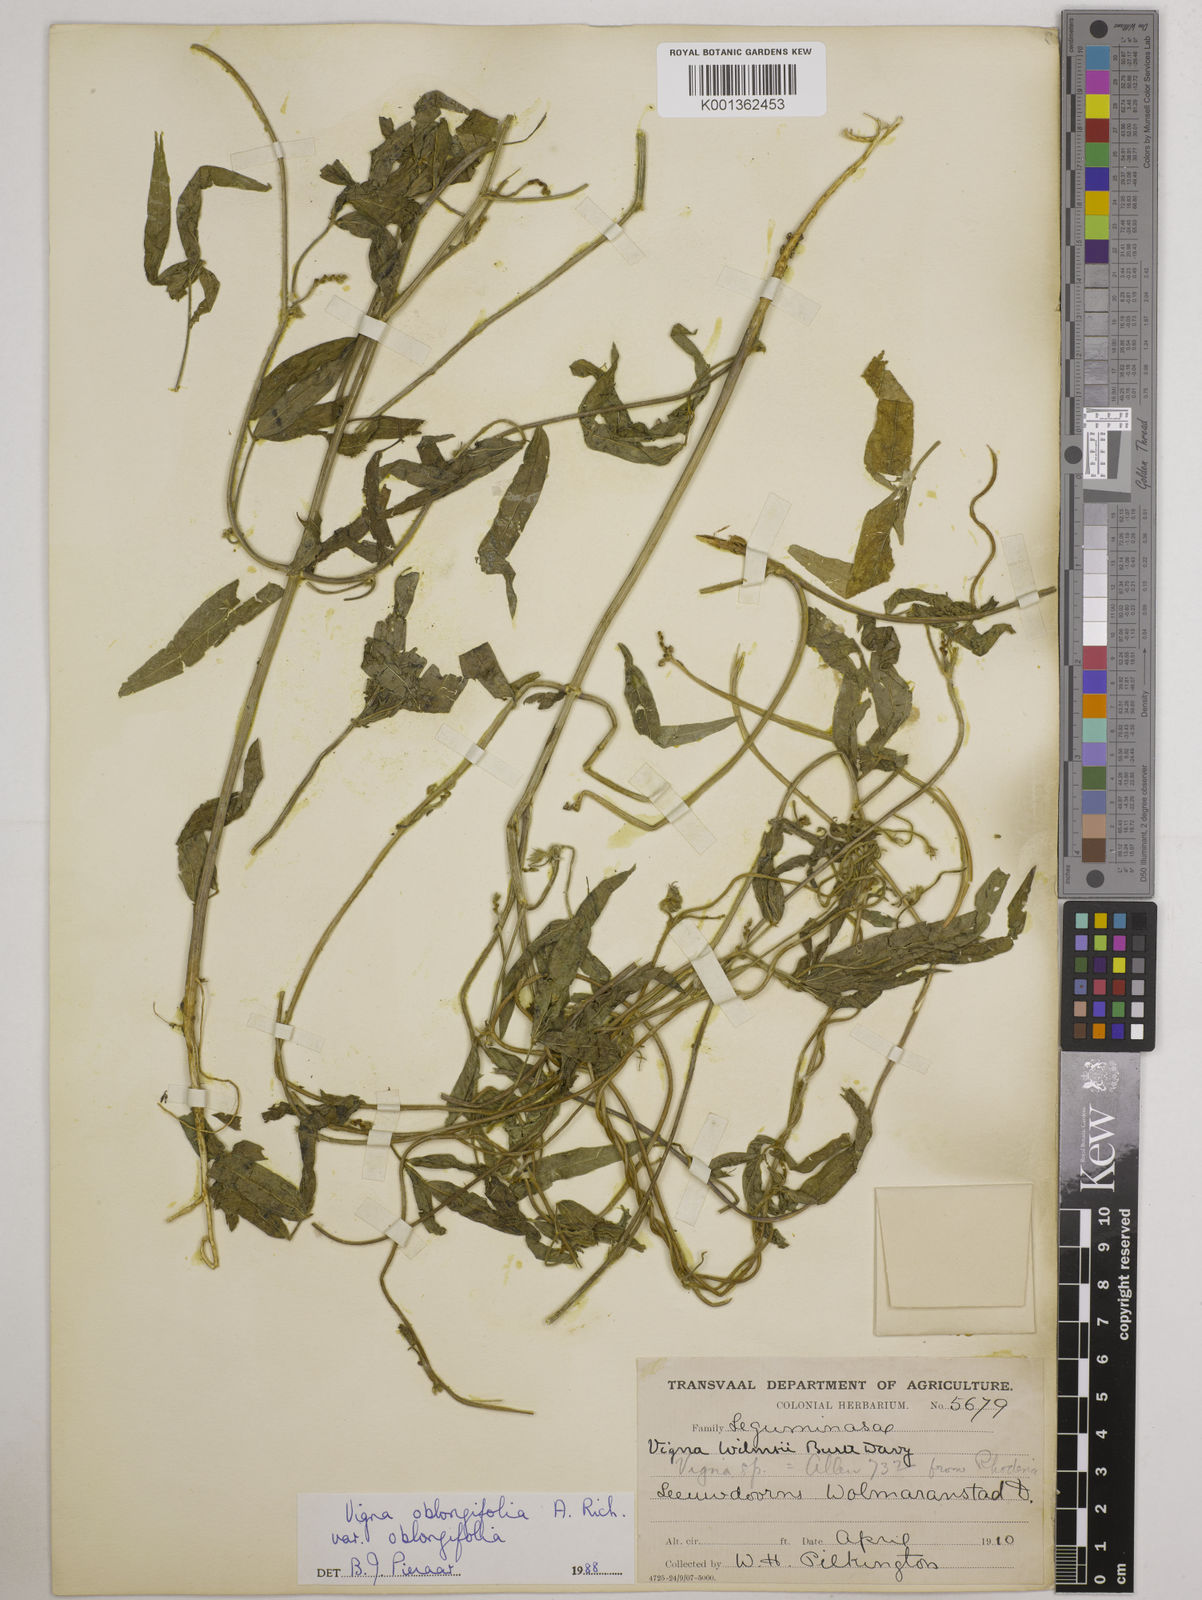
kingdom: Plantae
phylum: Tracheophyta
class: Magnoliopsida
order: Fabales
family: Fabaceae
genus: Vigna
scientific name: Vigna oblongifolia
